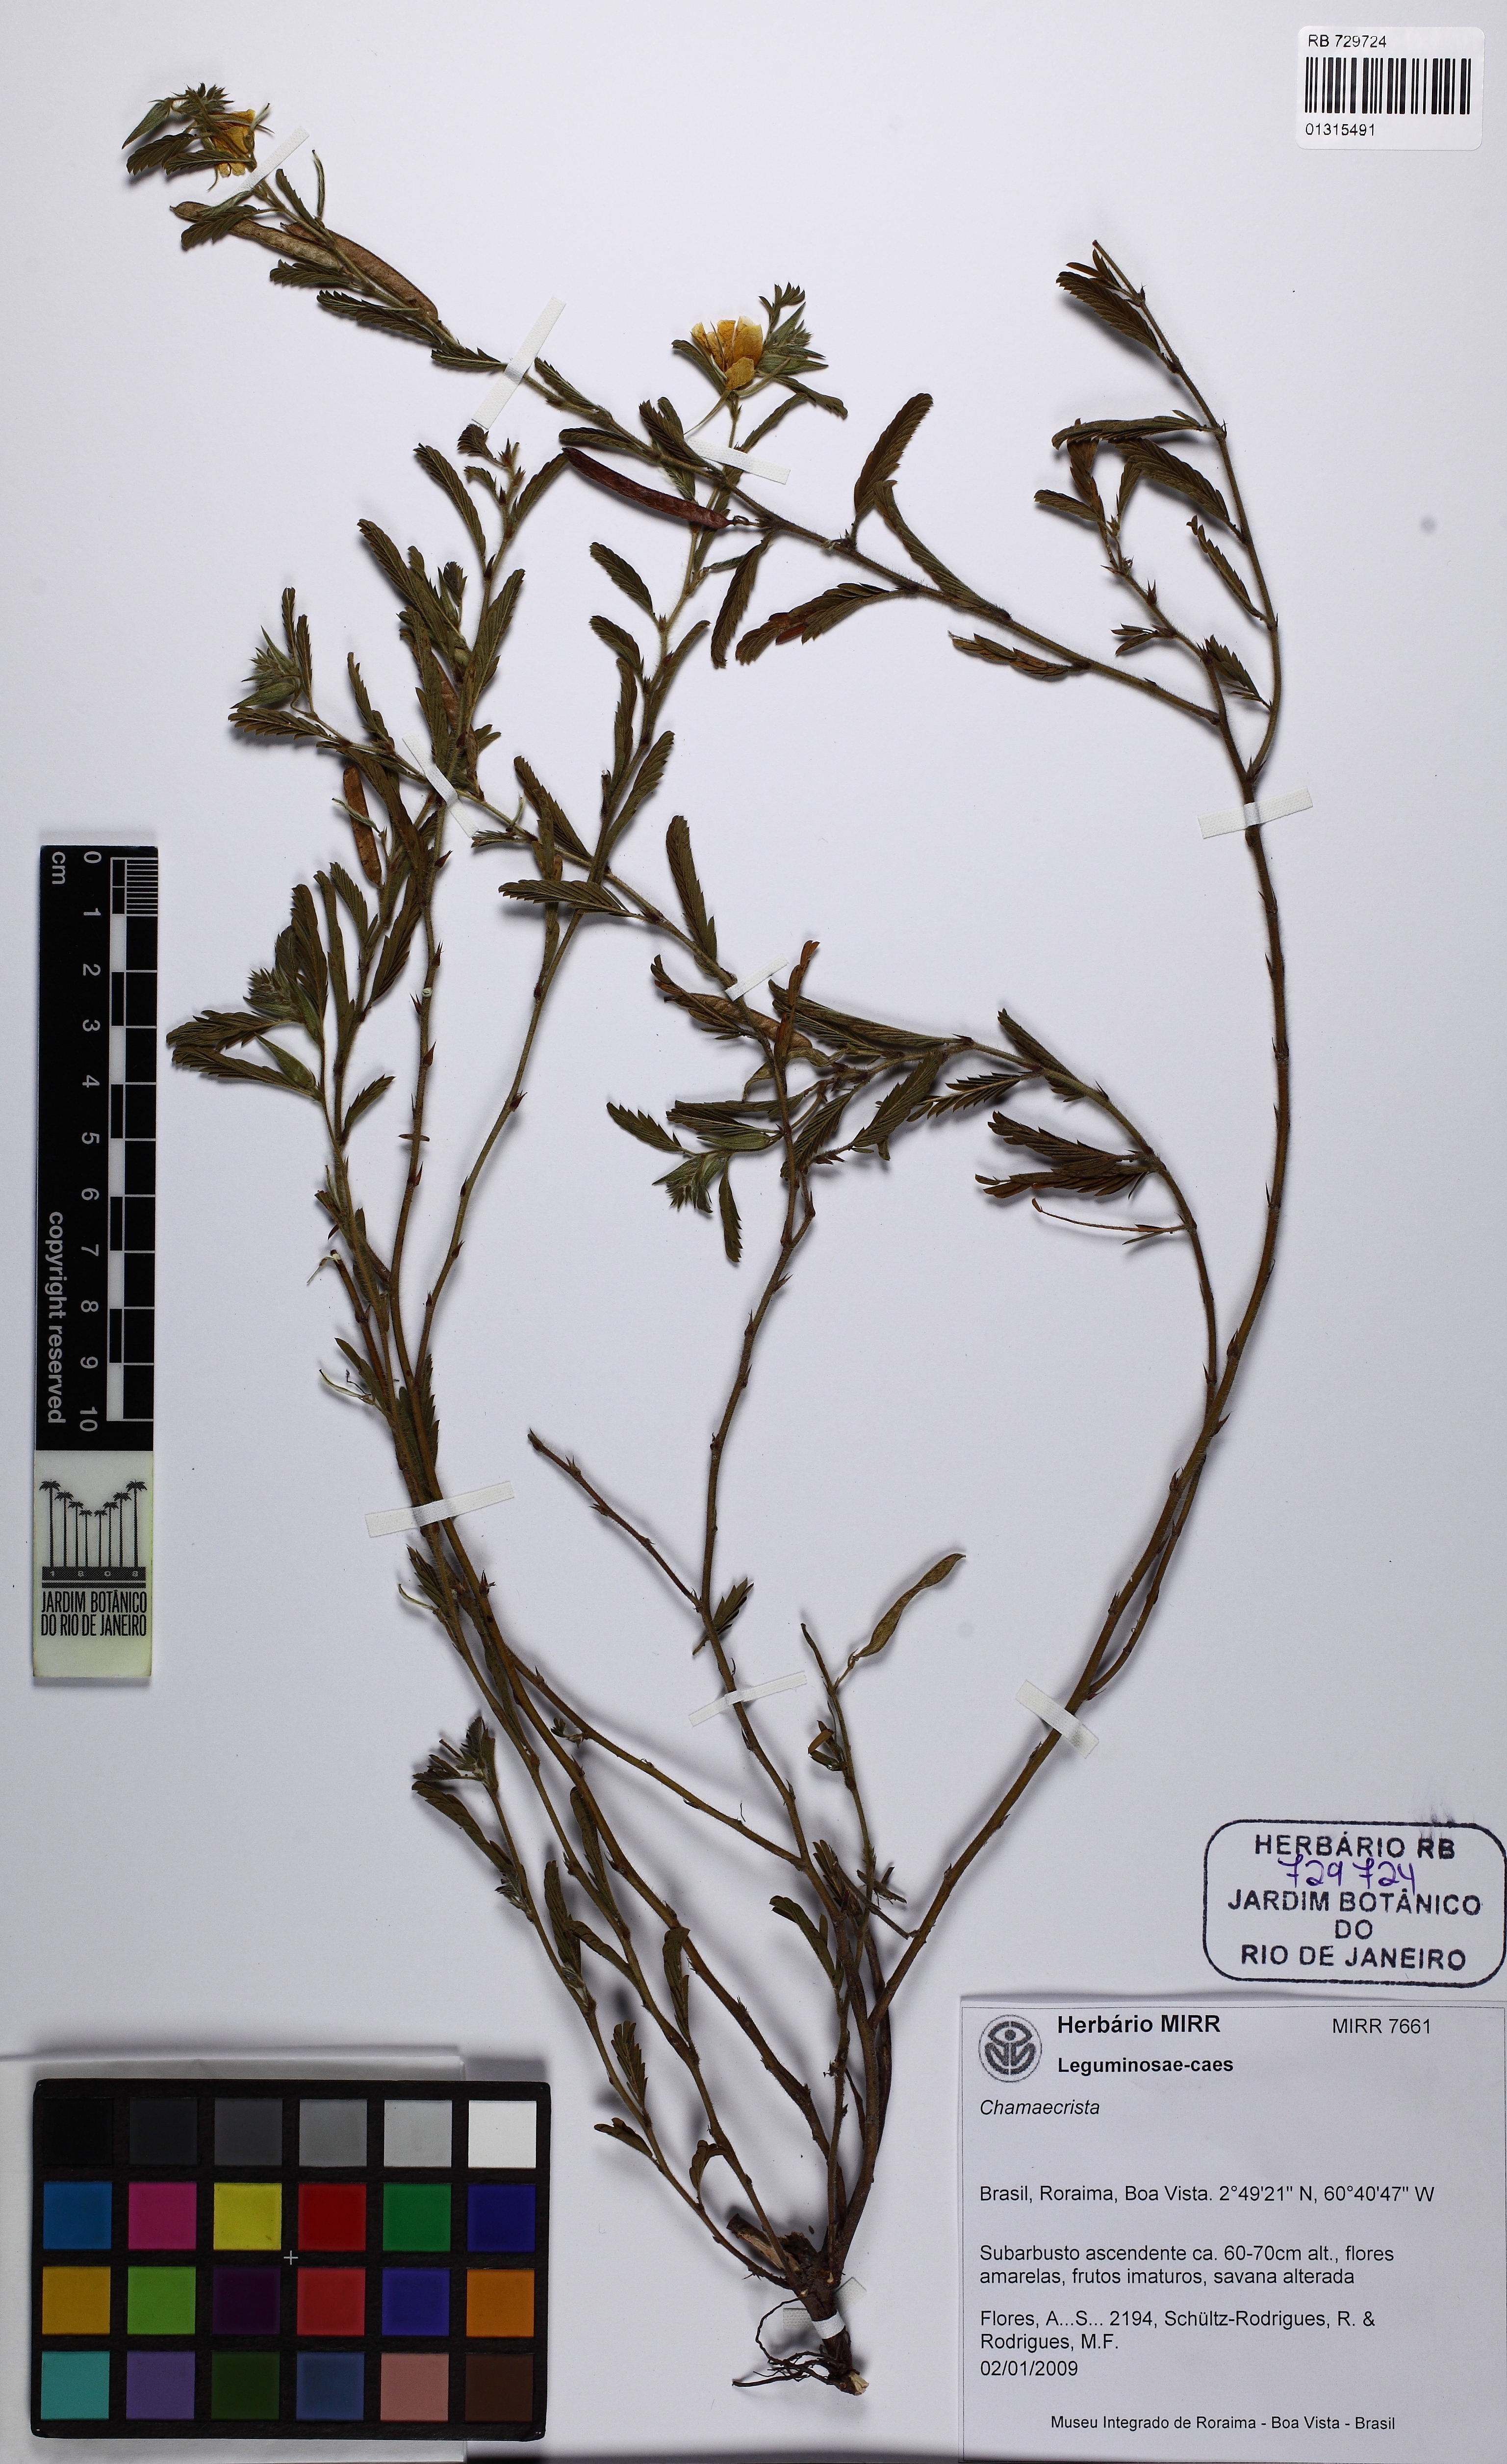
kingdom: Plantae
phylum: Tracheophyta
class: Magnoliopsida
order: Fabales
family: Fabaceae
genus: Chamaecrista
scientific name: Chamaecrista
